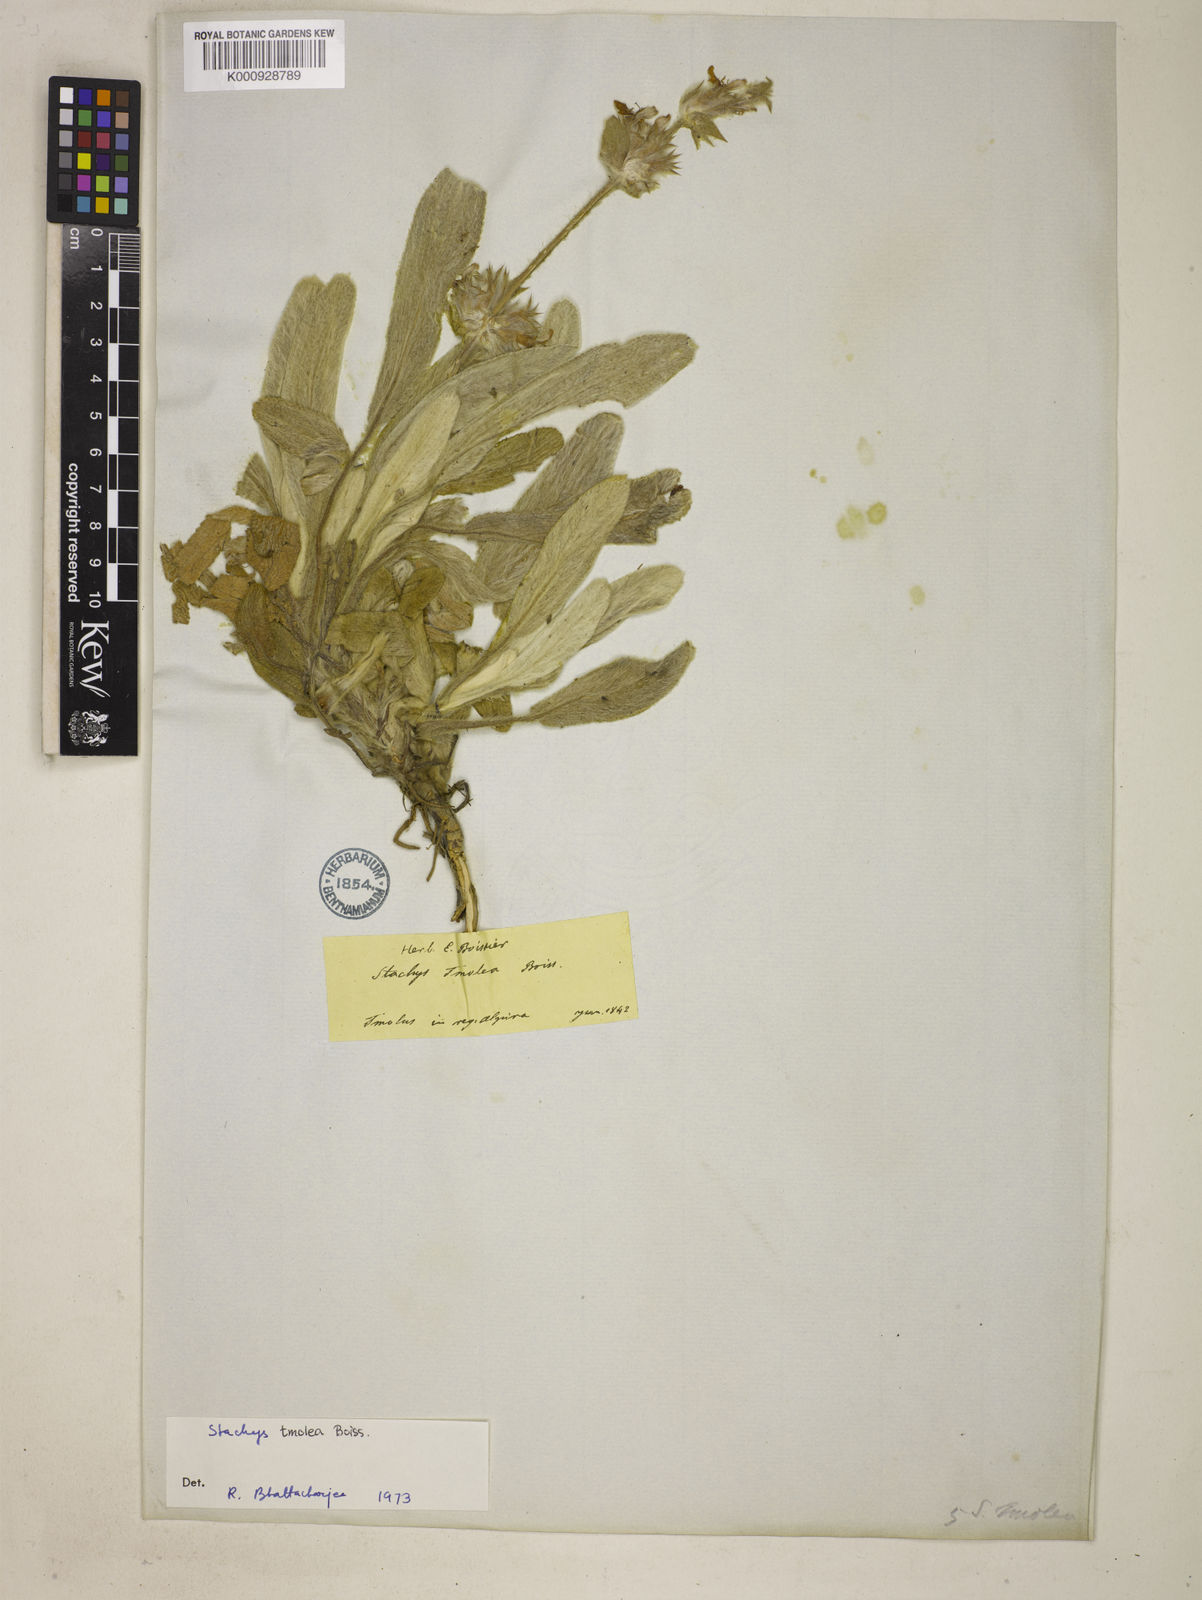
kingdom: Plantae
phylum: Tracheophyta
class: Magnoliopsida
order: Lamiales
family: Lamiaceae
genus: Stachys
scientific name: Stachys tmolea
